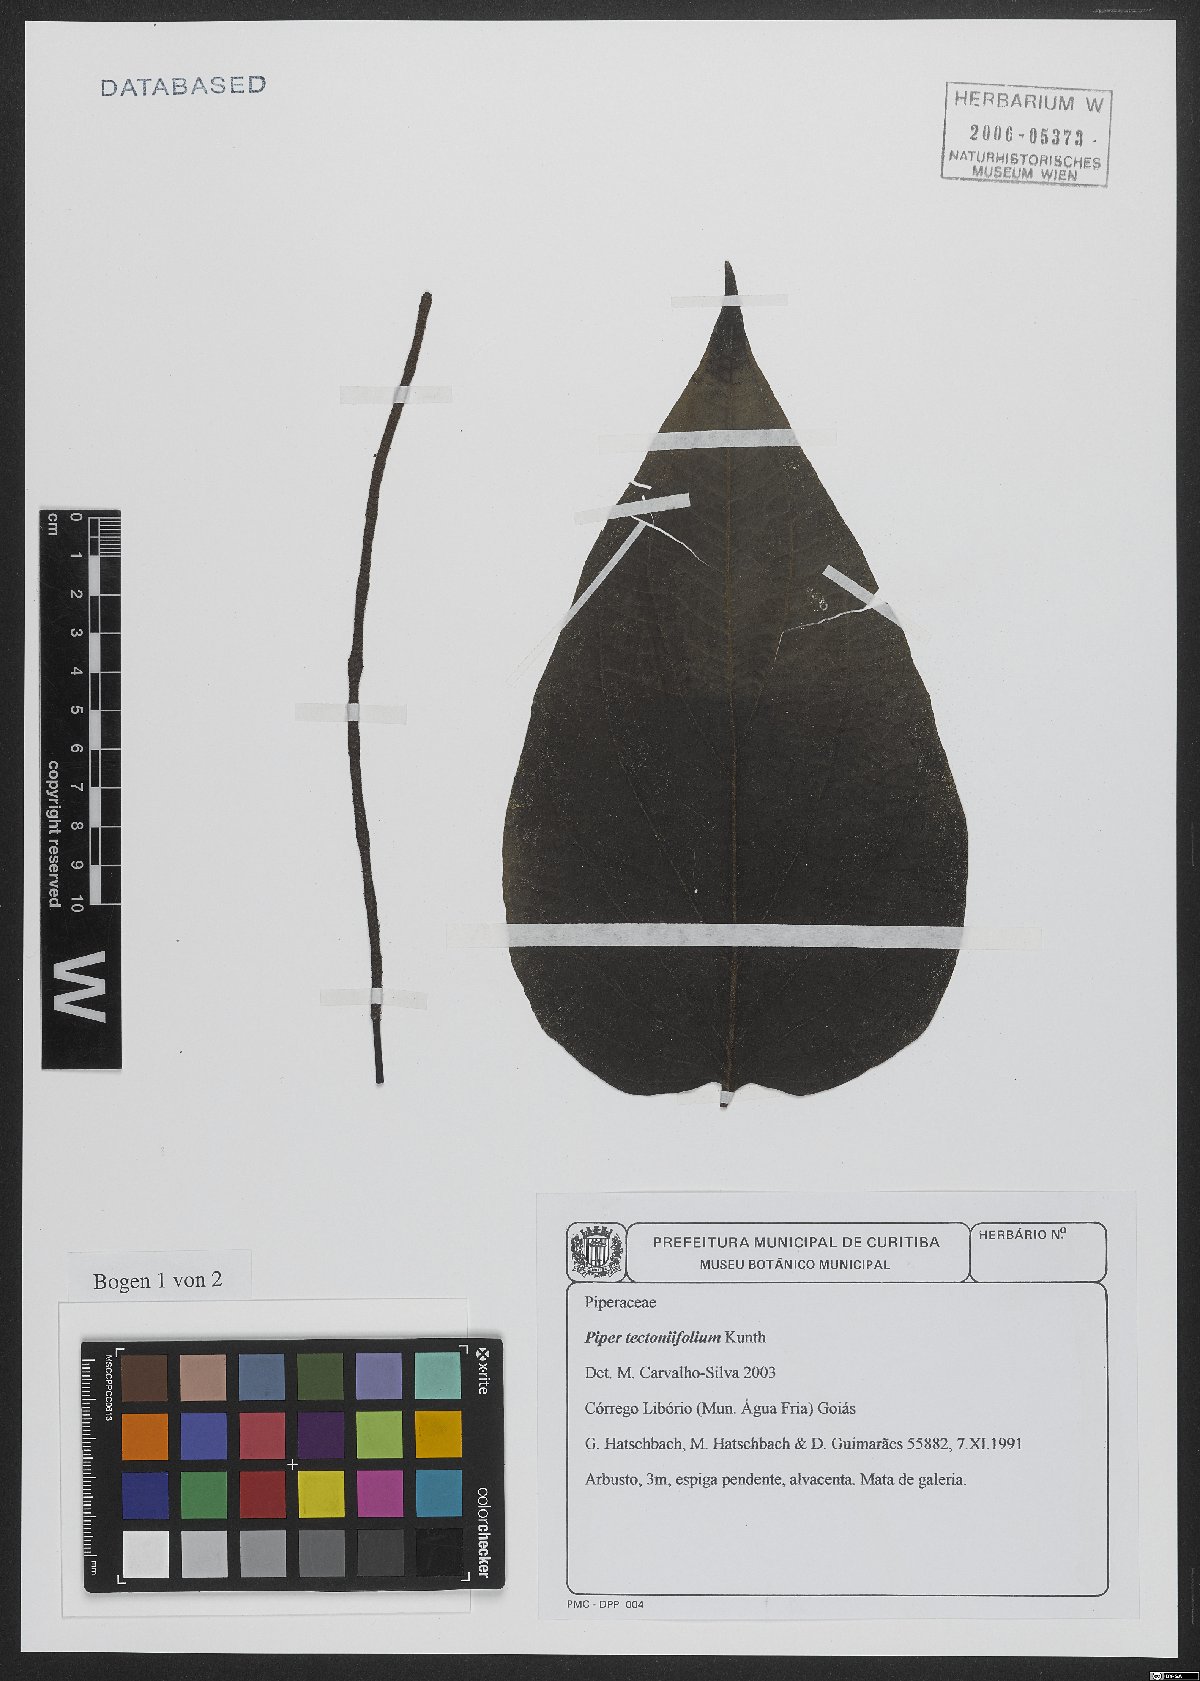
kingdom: Plantae
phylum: Tracheophyta
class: Magnoliopsida
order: Piperales
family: Piperaceae
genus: Piper
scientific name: Piper tectoniifolium
